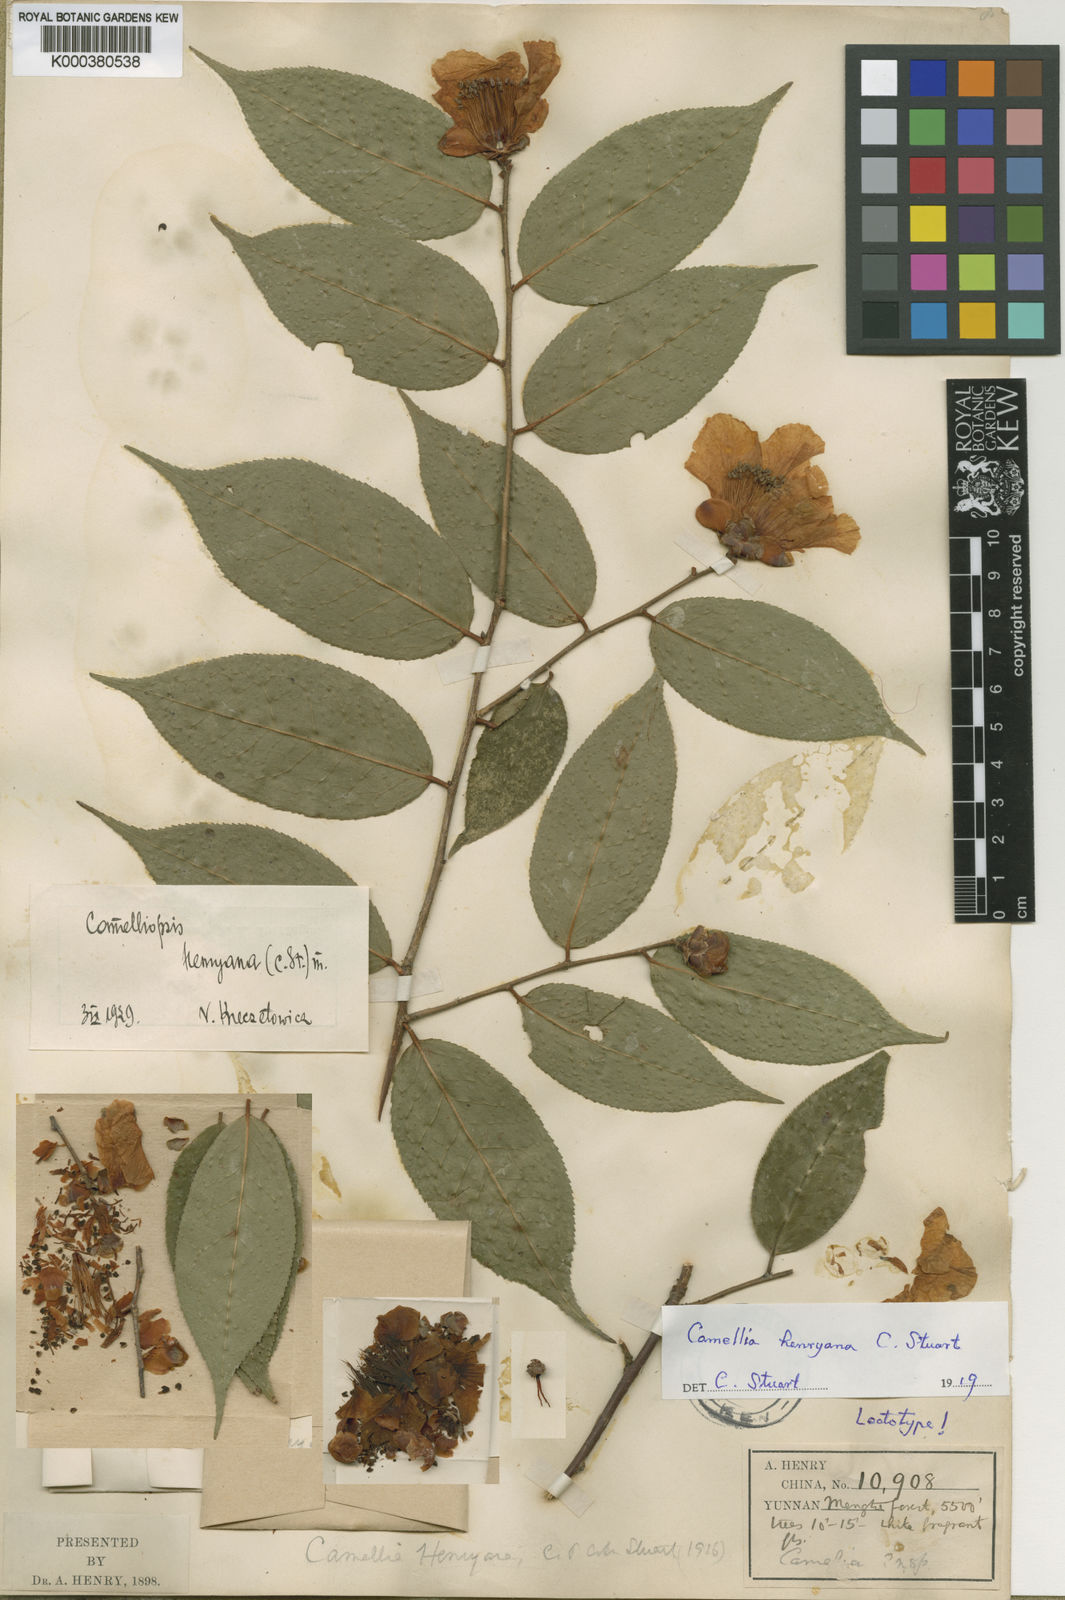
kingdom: Plantae
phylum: Tracheophyta
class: Magnoliopsida
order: Ericales
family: Theaceae
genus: Camellia
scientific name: Camellia yunnanensis
